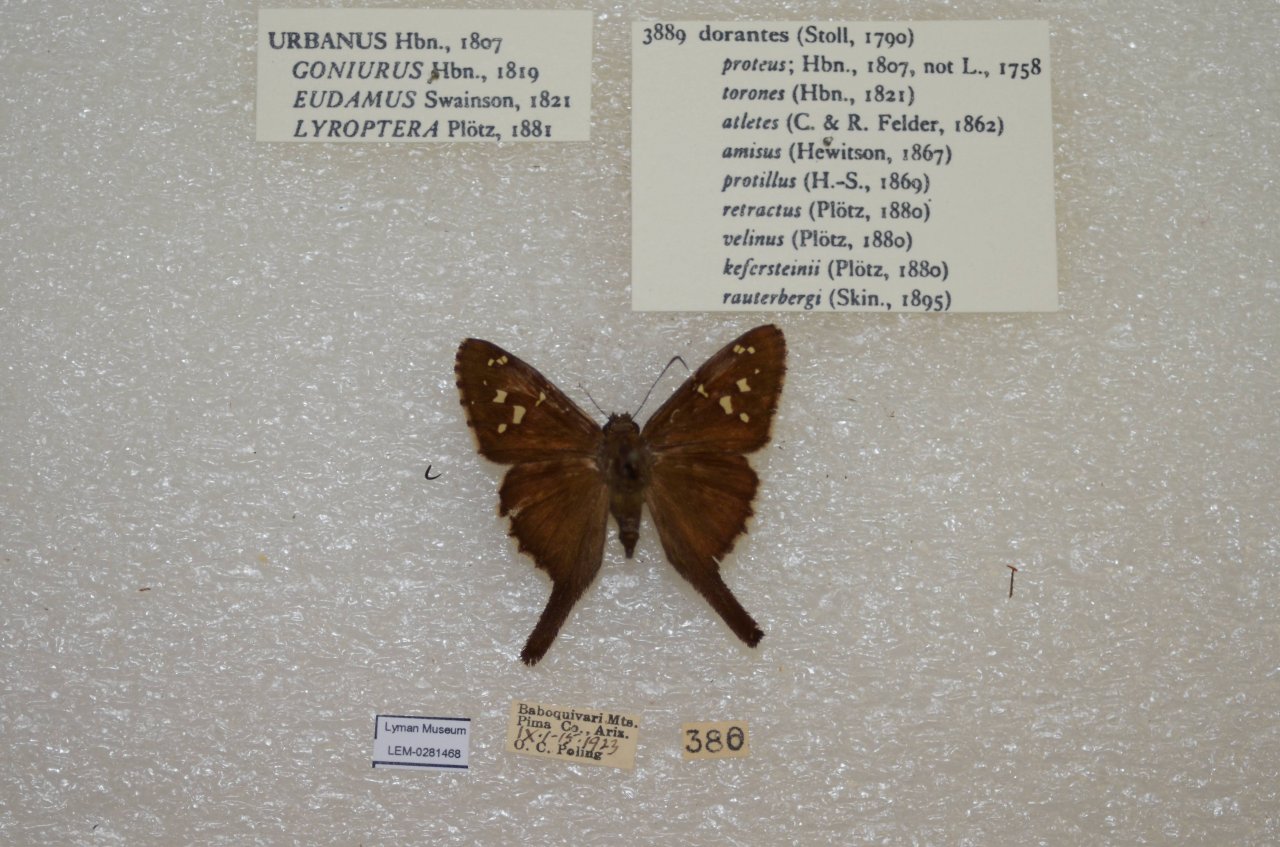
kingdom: Animalia
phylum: Arthropoda
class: Insecta
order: Lepidoptera
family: Hesperiidae
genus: Urbanus
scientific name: Urbanus dorantes
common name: Dorantes Longtail
